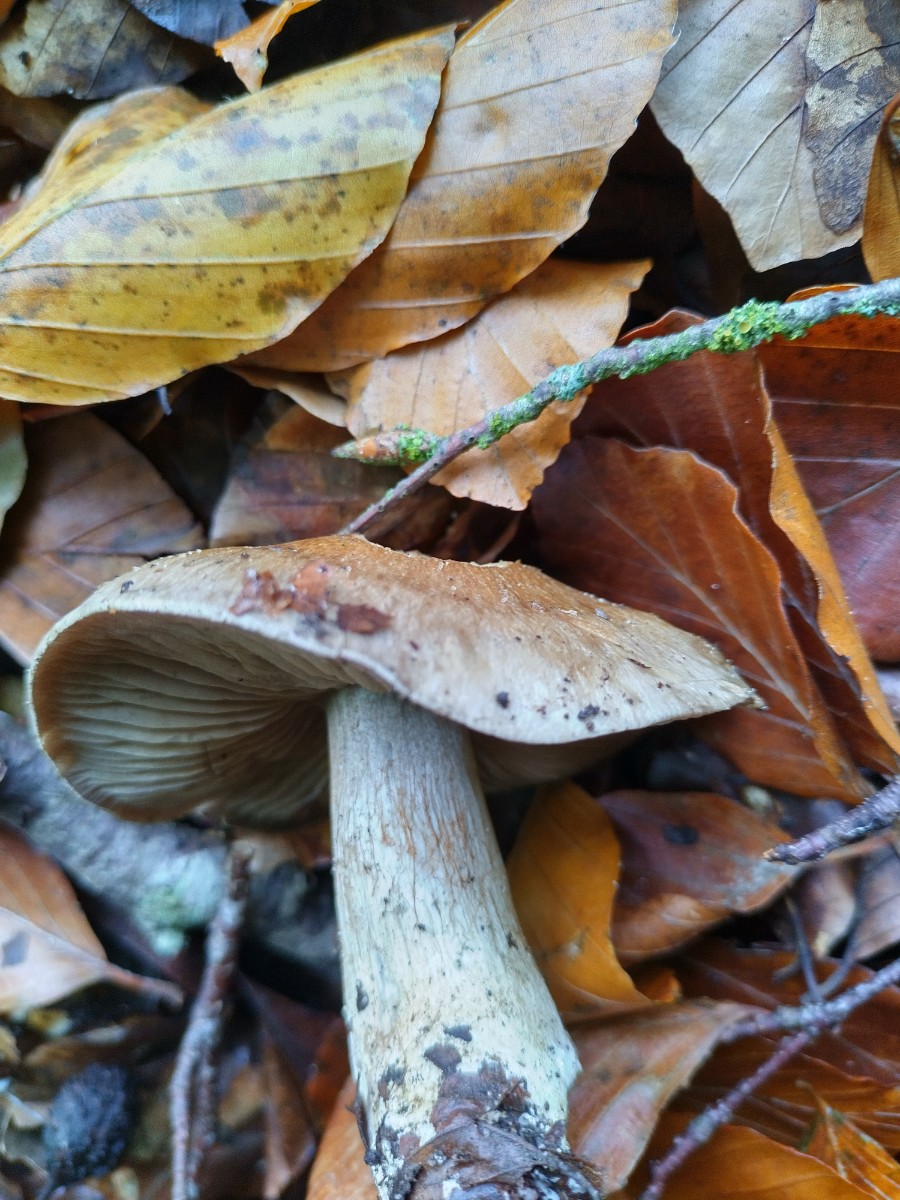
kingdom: Fungi
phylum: Basidiomycota
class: Agaricomycetes
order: Agaricales
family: Cortinariaceae
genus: Cortinarius
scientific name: Cortinarius
